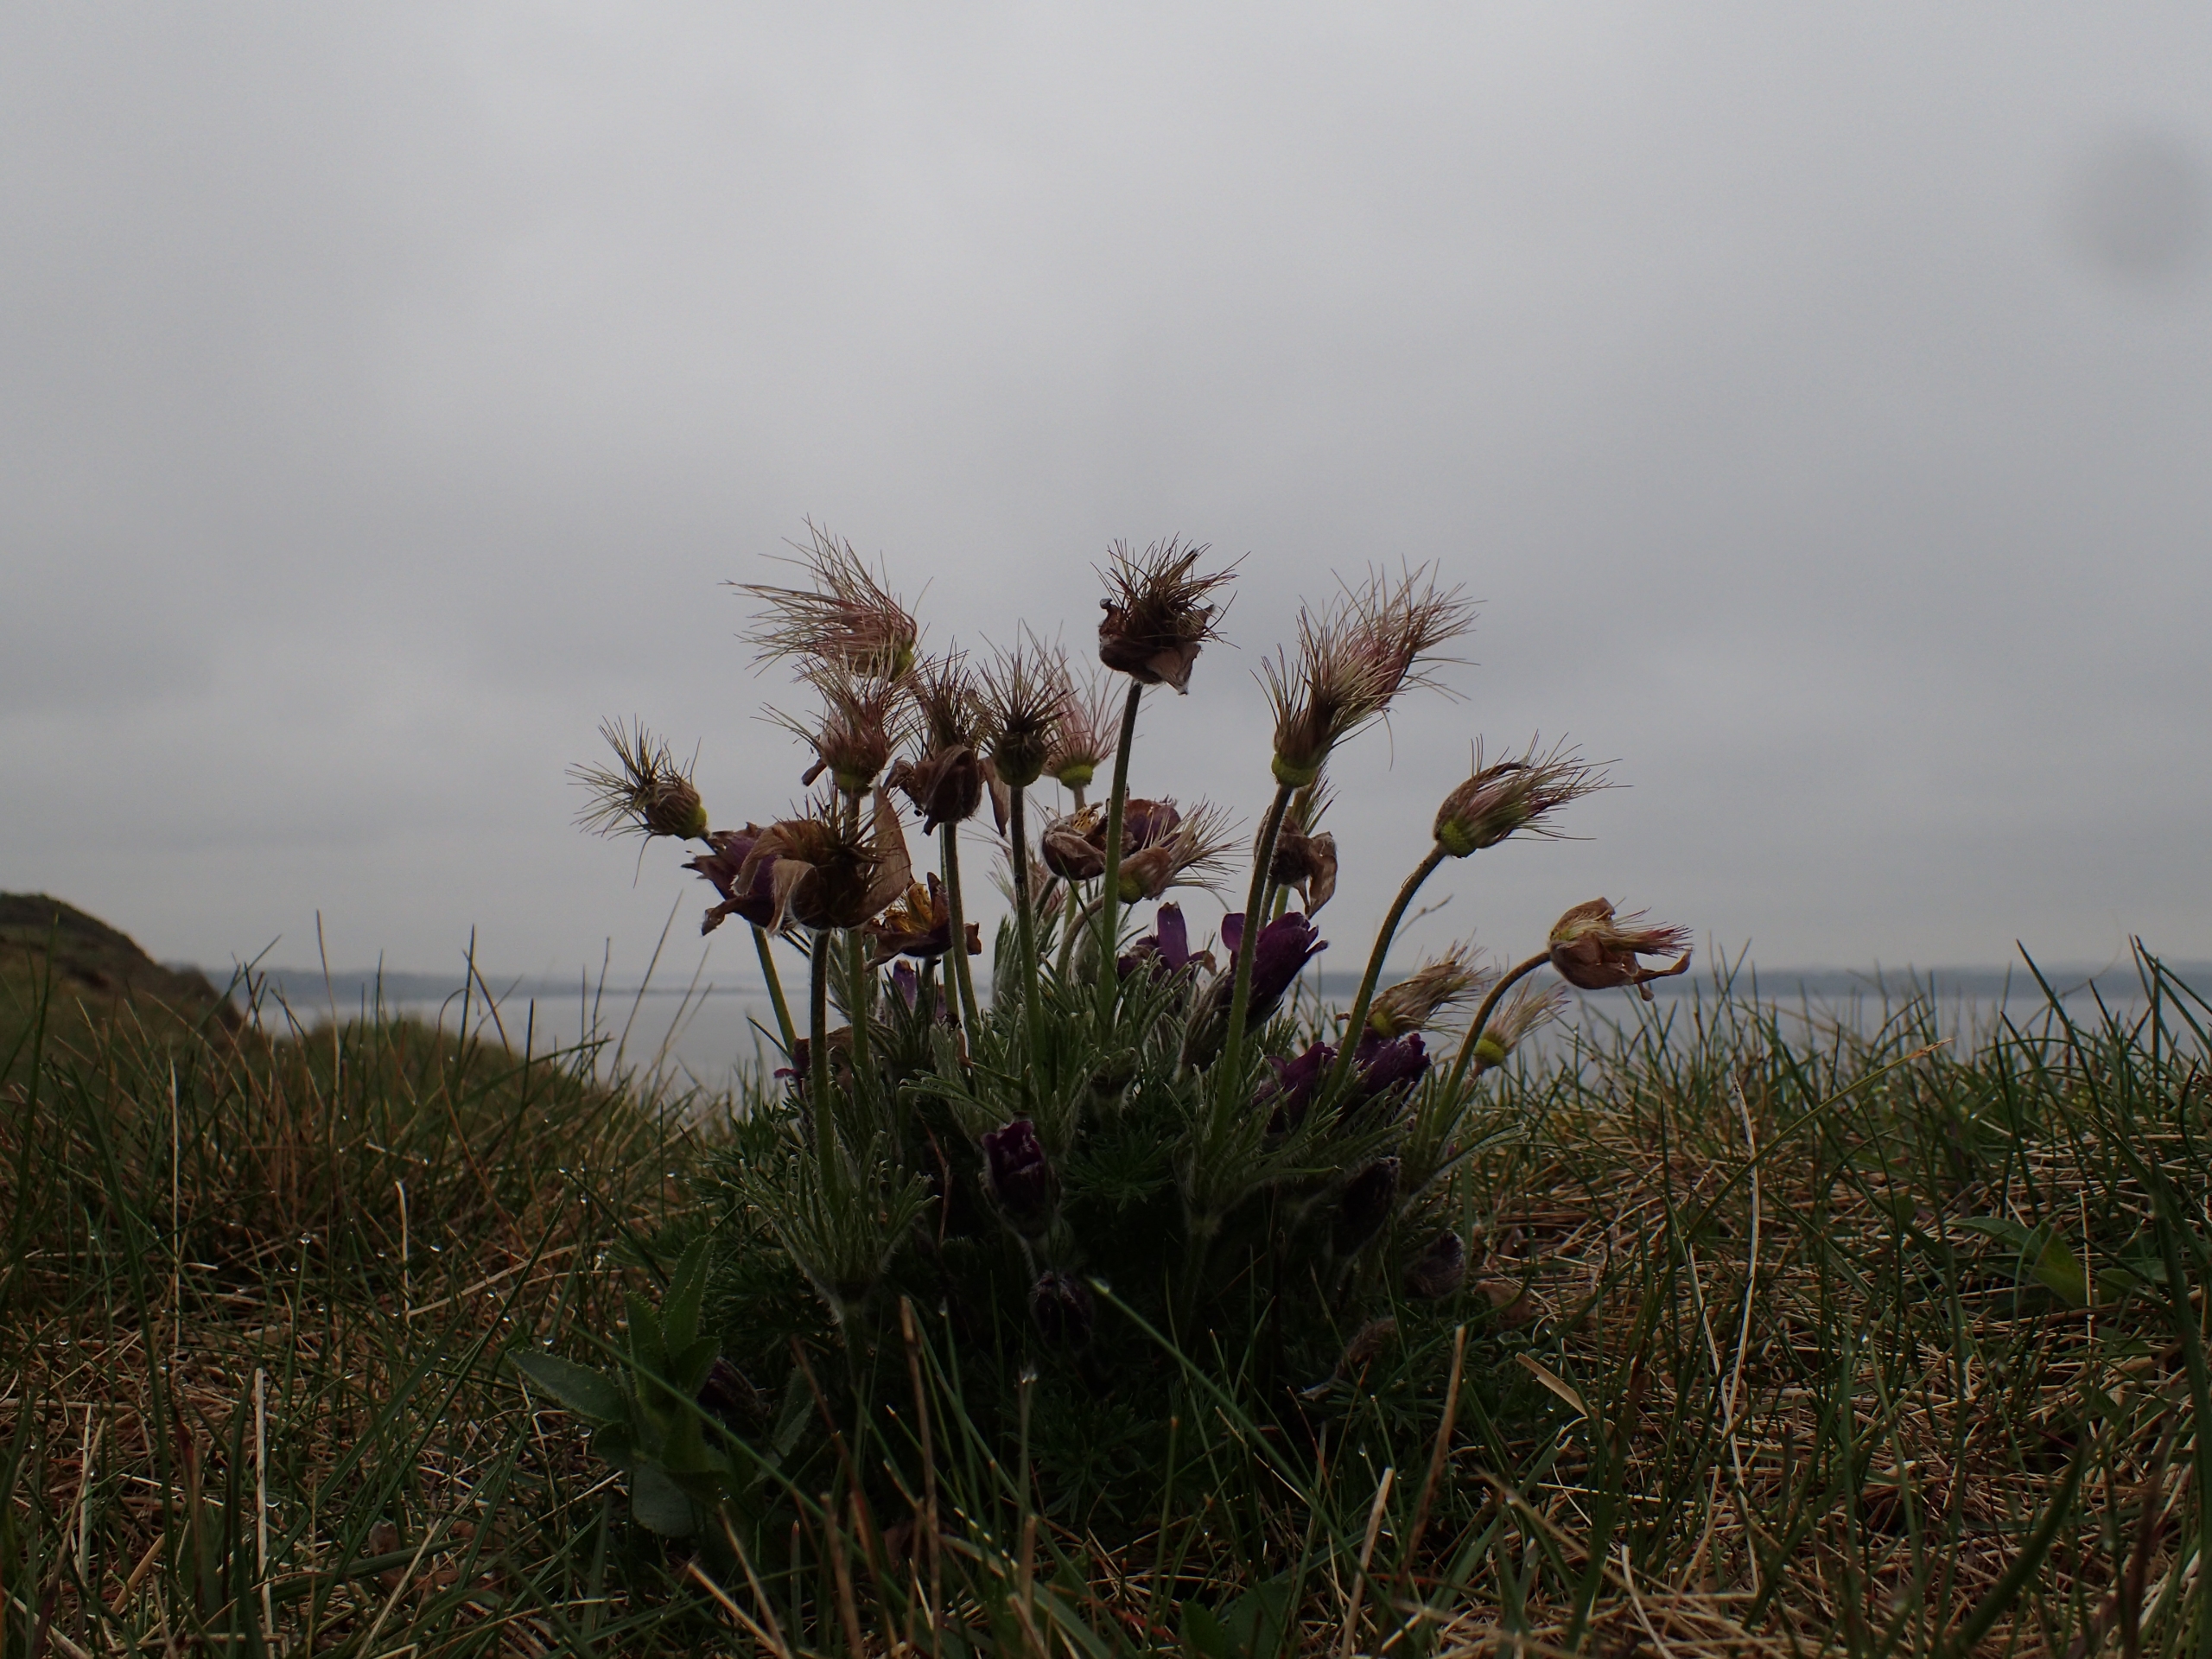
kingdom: Plantae
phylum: Tracheophyta
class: Magnoliopsida
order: Ranunculales
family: Ranunculaceae
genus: Pulsatilla
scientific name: Pulsatilla vulgaris
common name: Opret kobjælde
